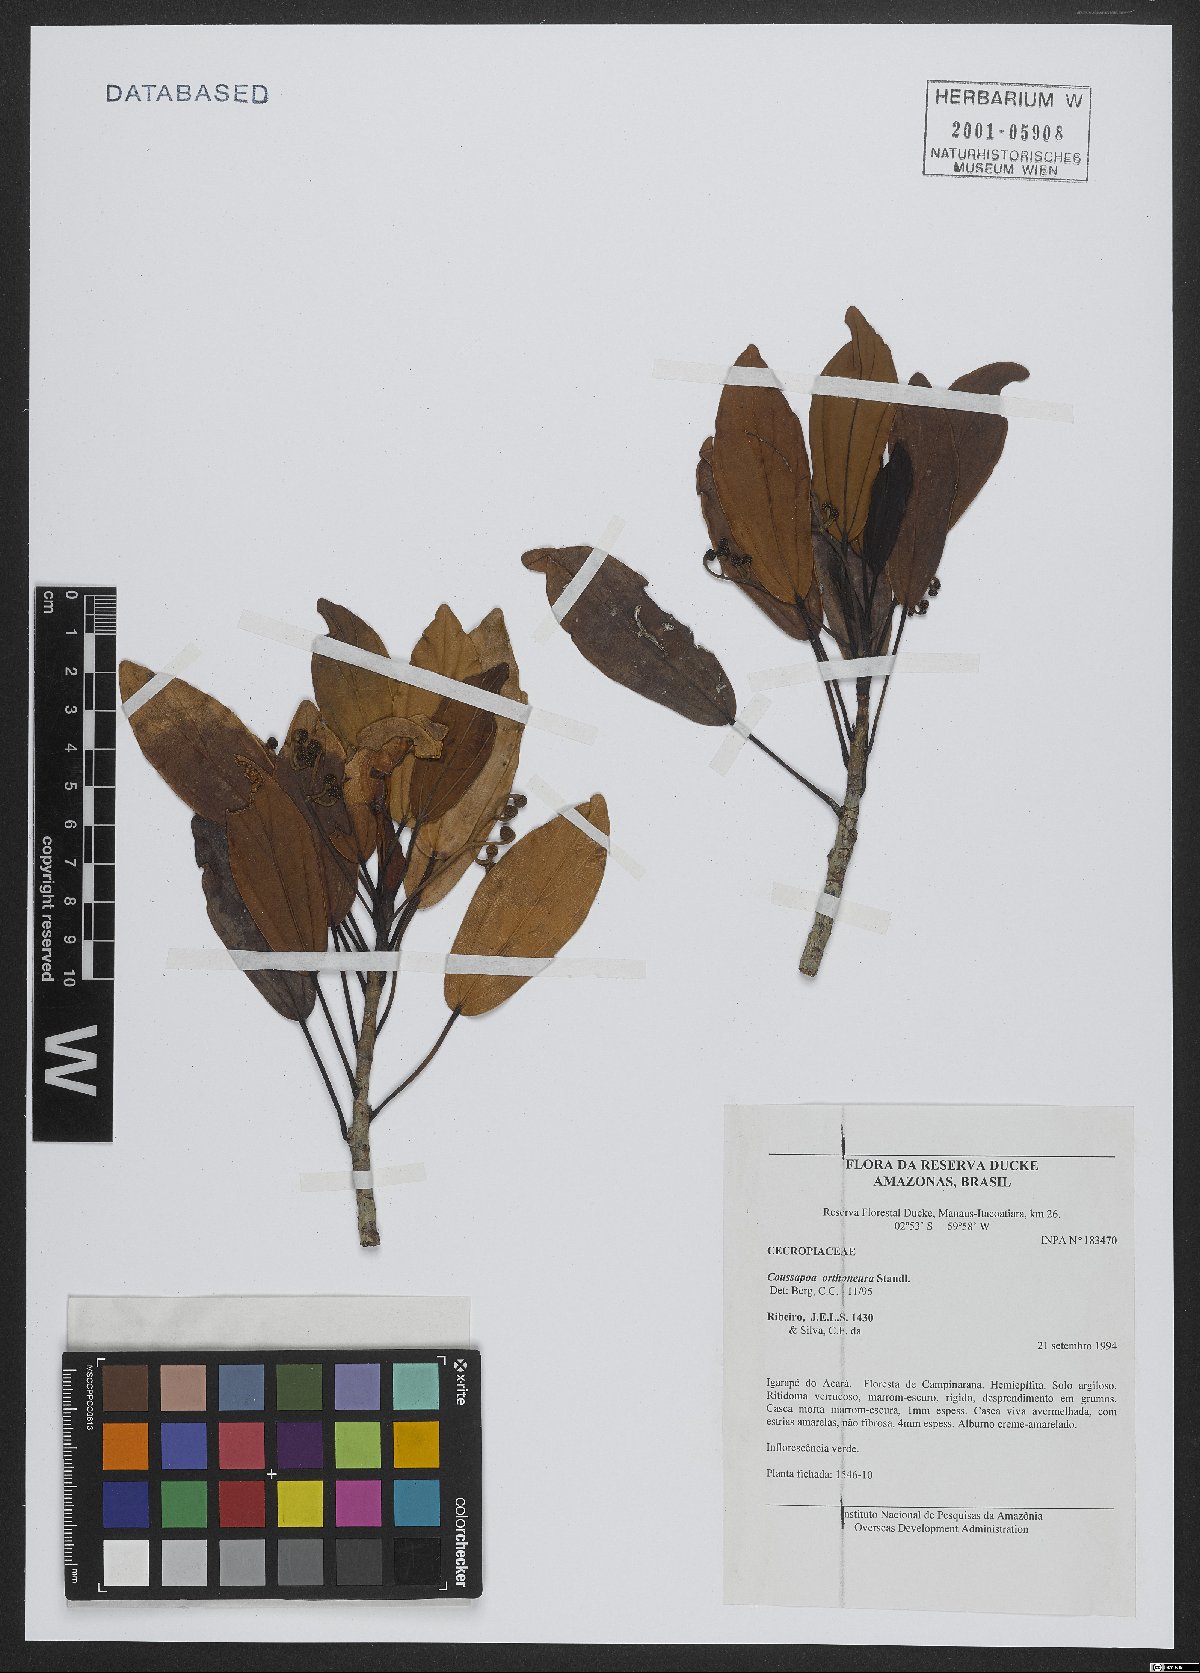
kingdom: Plantae
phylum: Tracheophyta
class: Magnoliopsida
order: Rosales
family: Urticaceae
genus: Coussapoa
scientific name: Coussapoa orthoneura
